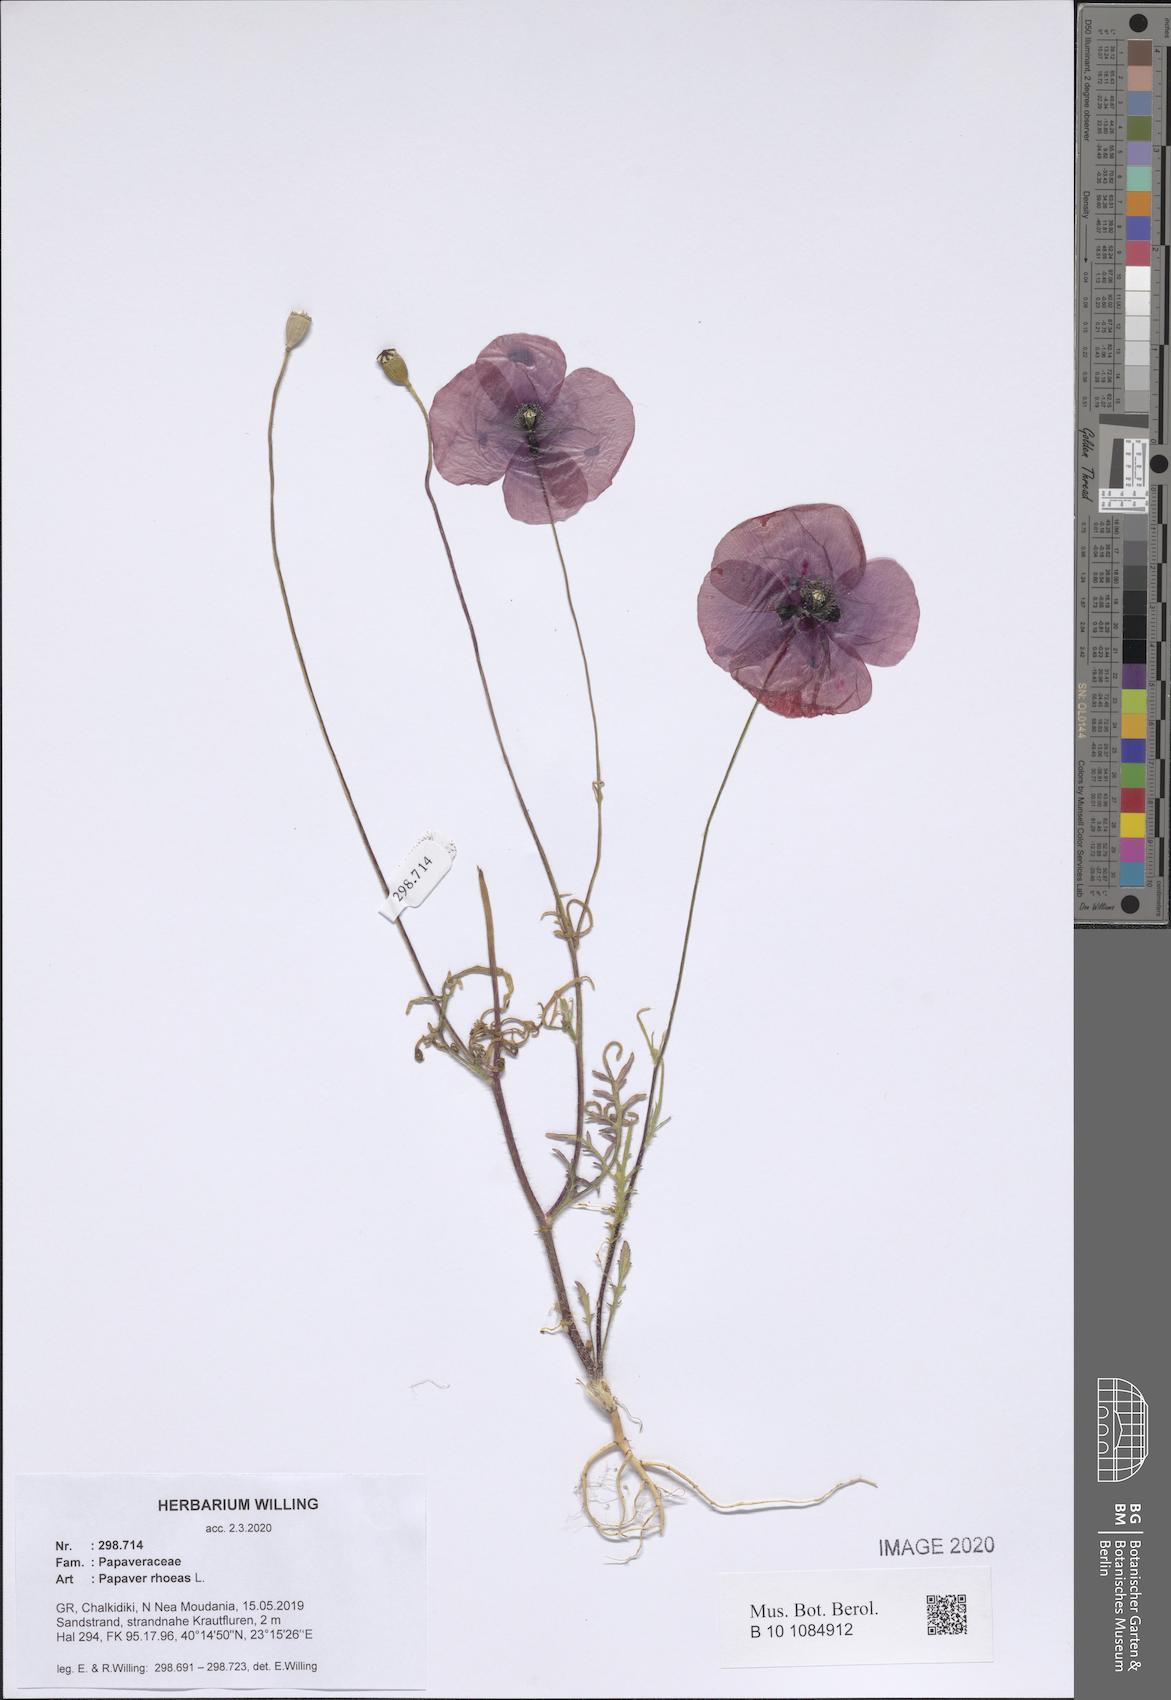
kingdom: Plantae
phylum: Tracheophyta
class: Magnoliopsida
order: Ranunculales
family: Papaveraceae
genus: Papaver
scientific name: Papaver rhoeas
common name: Corn poppy
